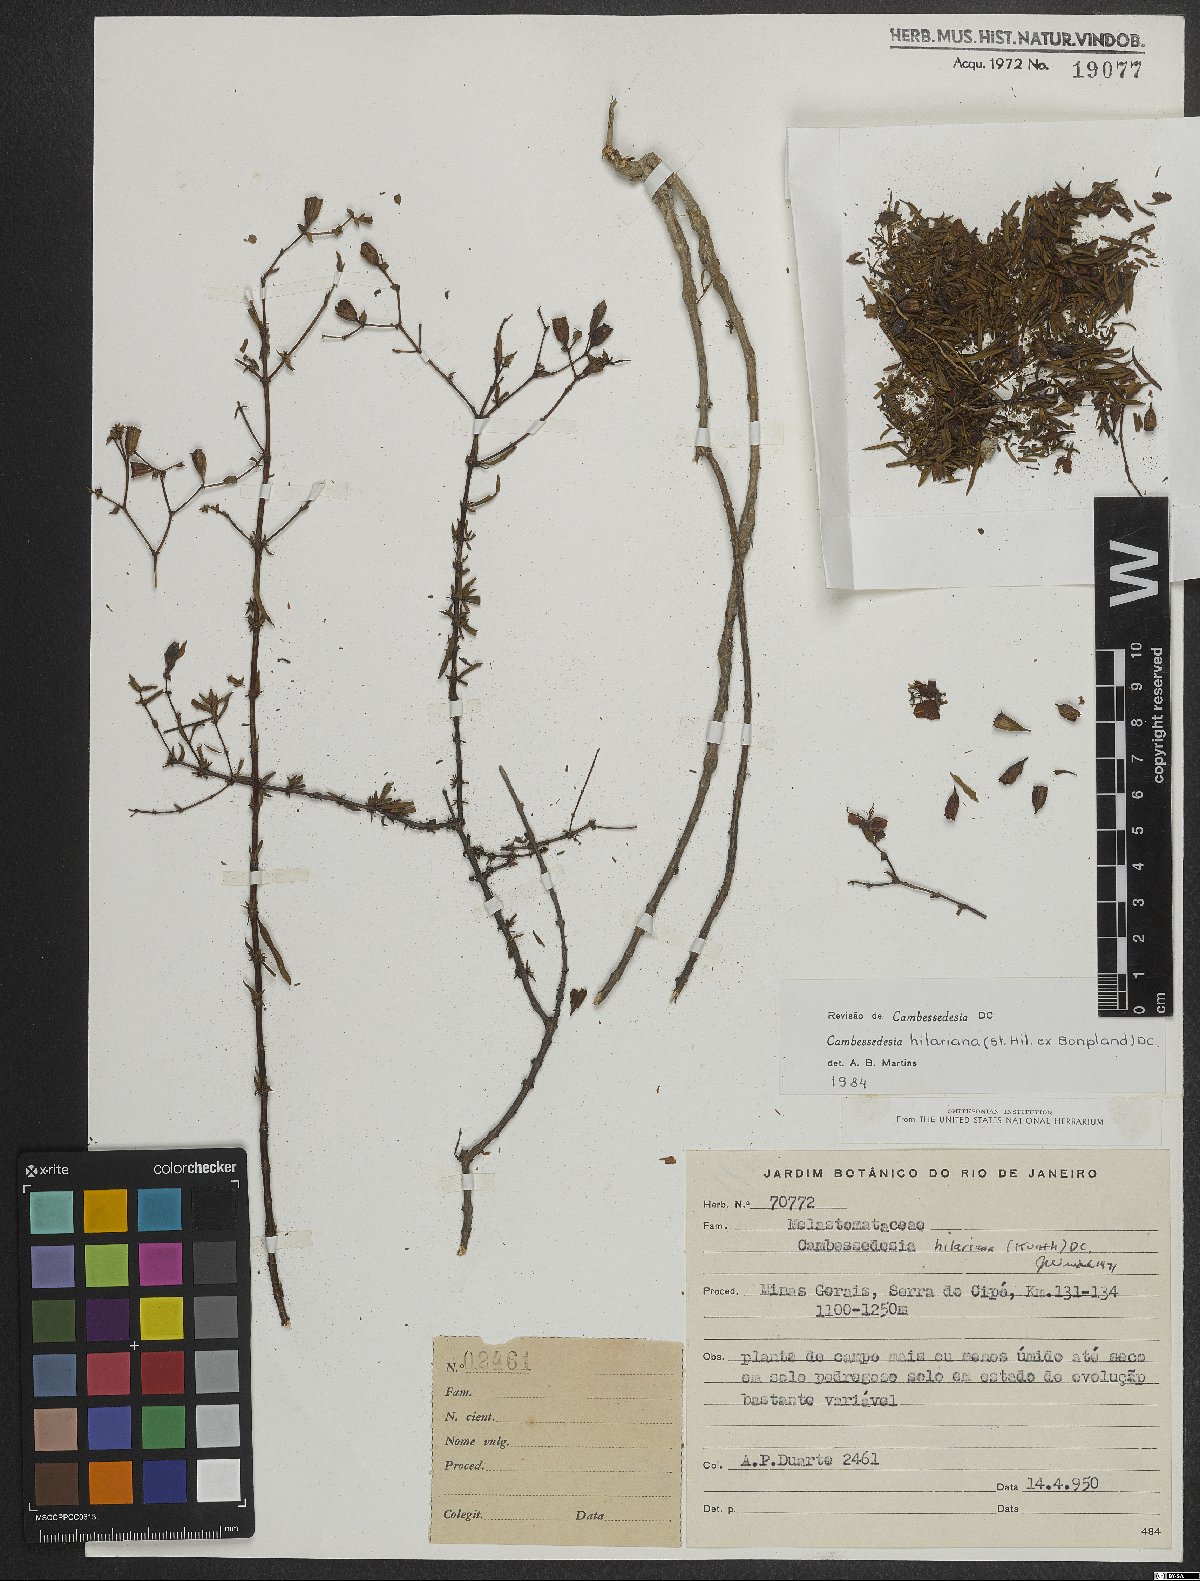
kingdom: Plantae
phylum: Tracheophyta
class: Magnoliopsida
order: Myrtales
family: Melastomataceae
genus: Cambessedesia
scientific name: Cambessedesia hilariana
